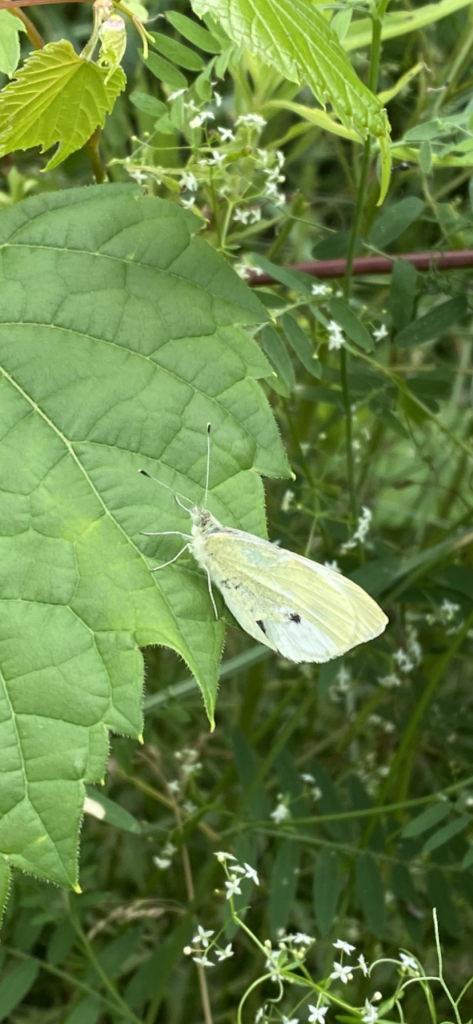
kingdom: Animalia
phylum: Arthropoda
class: Insecta
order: Lepidoptera
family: Pieridae
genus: Pieris
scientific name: Pieris rapae
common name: Cabbage White
